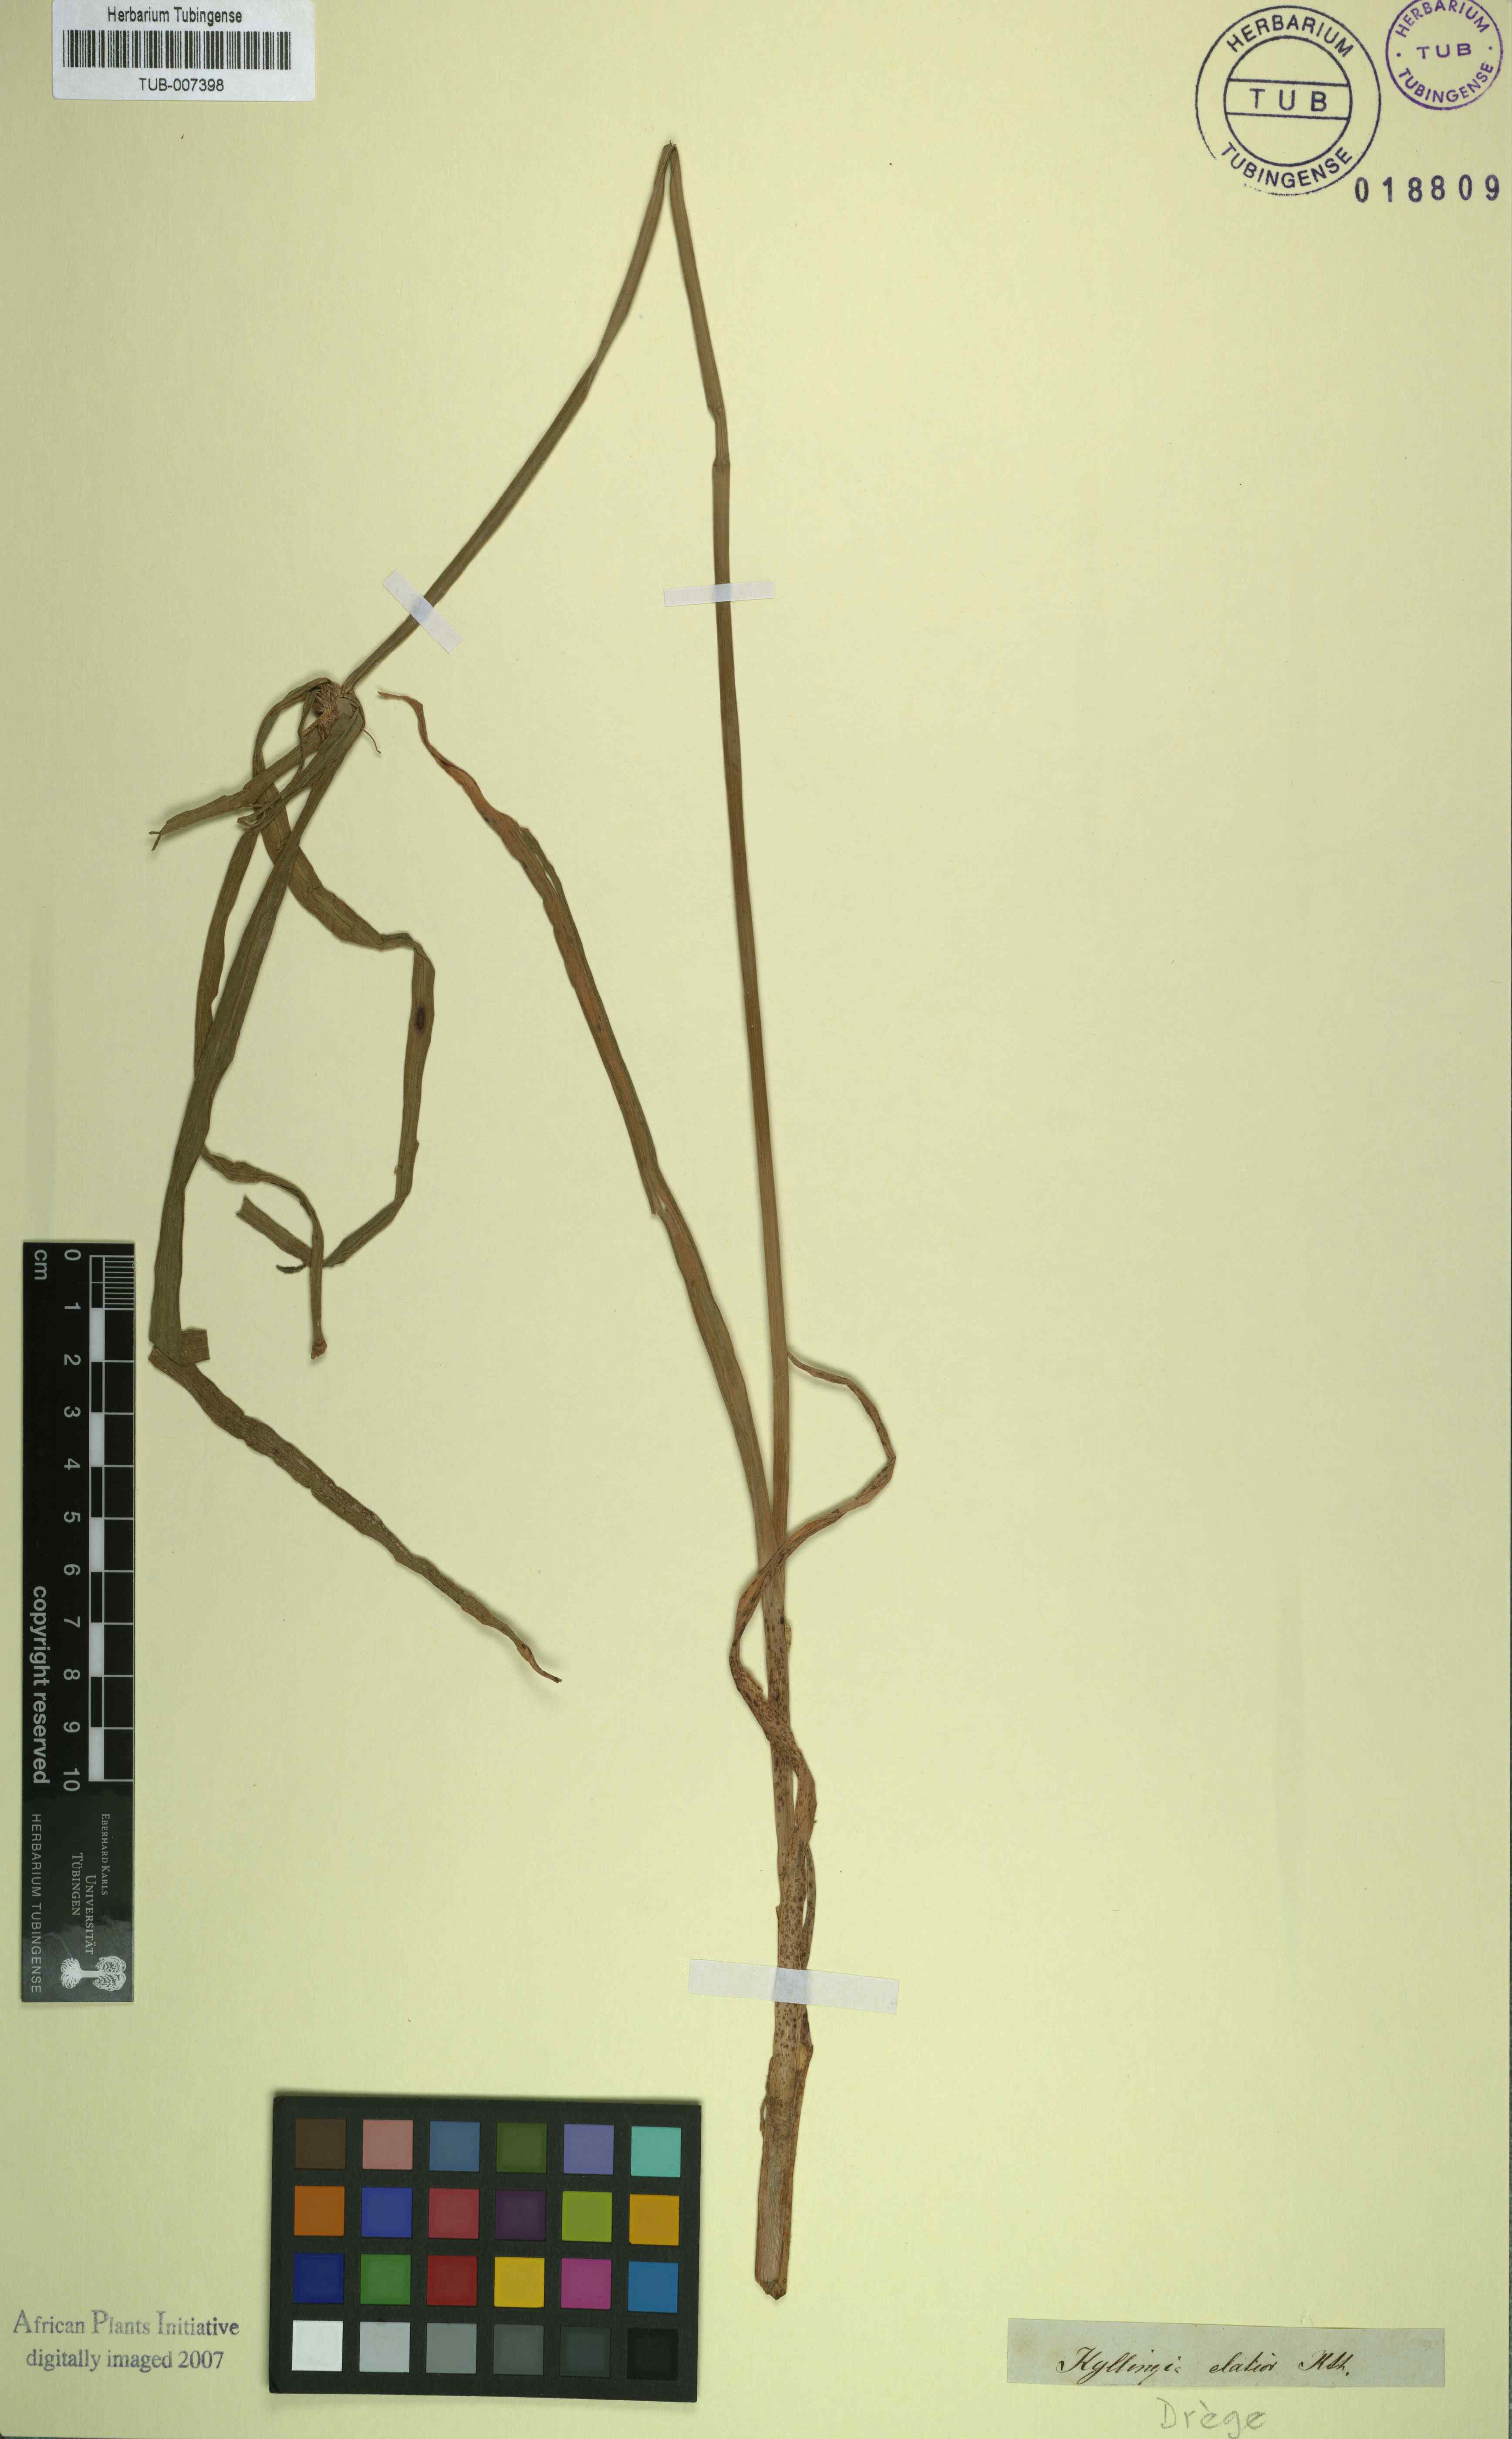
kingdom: Plantae
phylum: Tracheophyta
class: Liliopsida
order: Poales
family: Cyperaceae
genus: Cyperus
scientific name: Cyperus ruwenzoriensis
